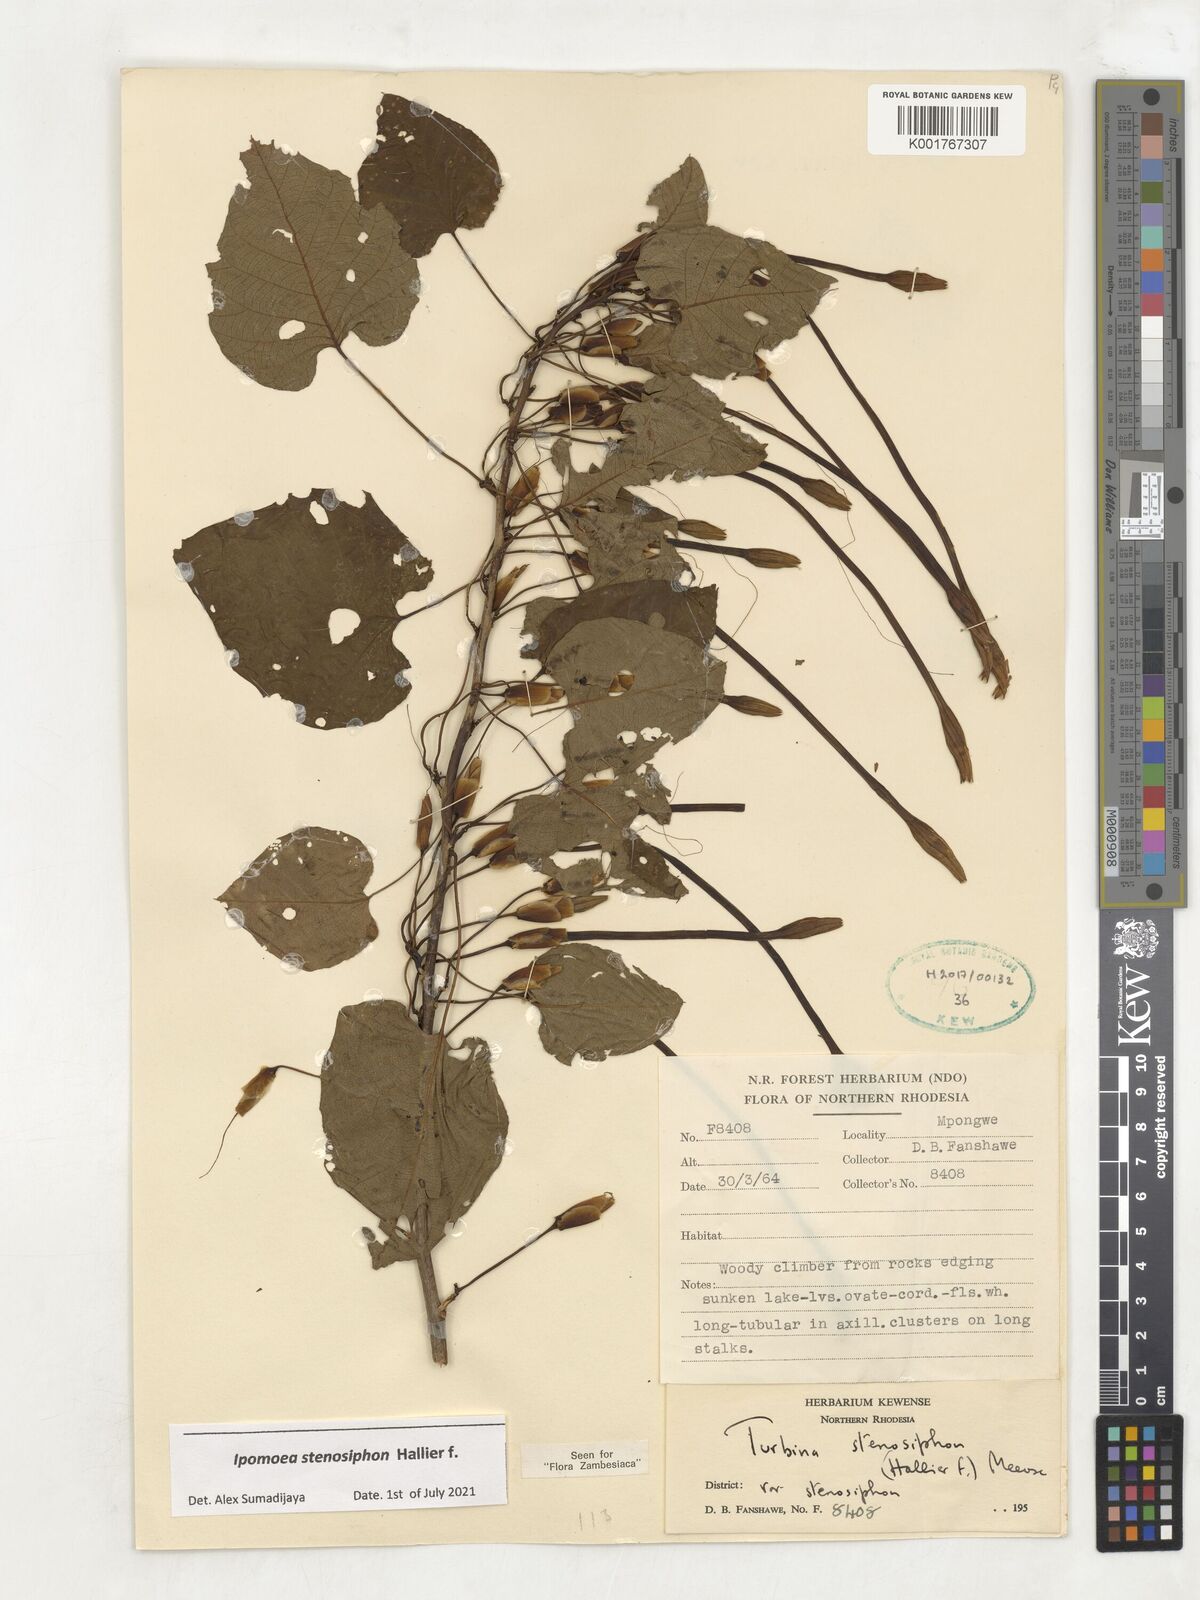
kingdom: Plantae
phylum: Tracheophyta
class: Magnoliopsida
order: Solanales
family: Convolvulaceae
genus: Ipomoea
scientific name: Ipomoea stenosiphon
